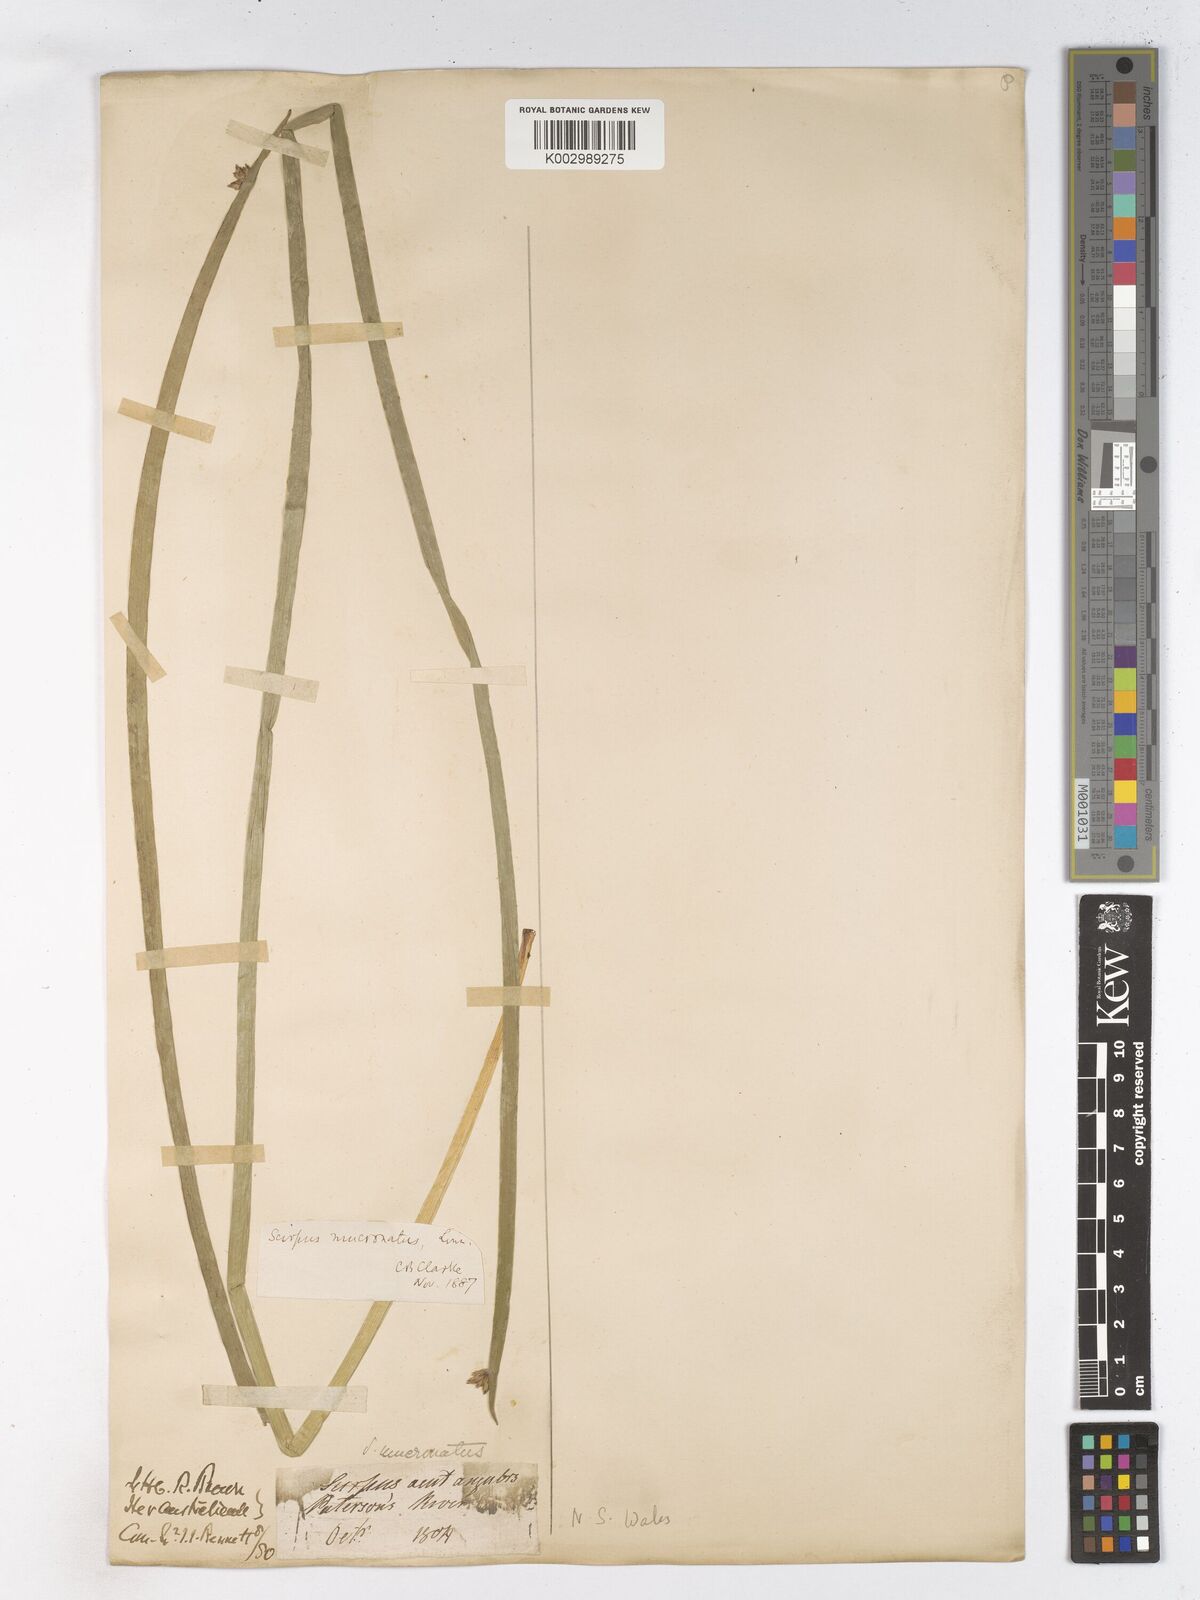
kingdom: Plantae
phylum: Tracheophyta
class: Liliopsida
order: Poales
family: Cyperaceae
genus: Schoenoplectiella
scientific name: Schoenoplectiella mucronata
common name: Bog bulrush
